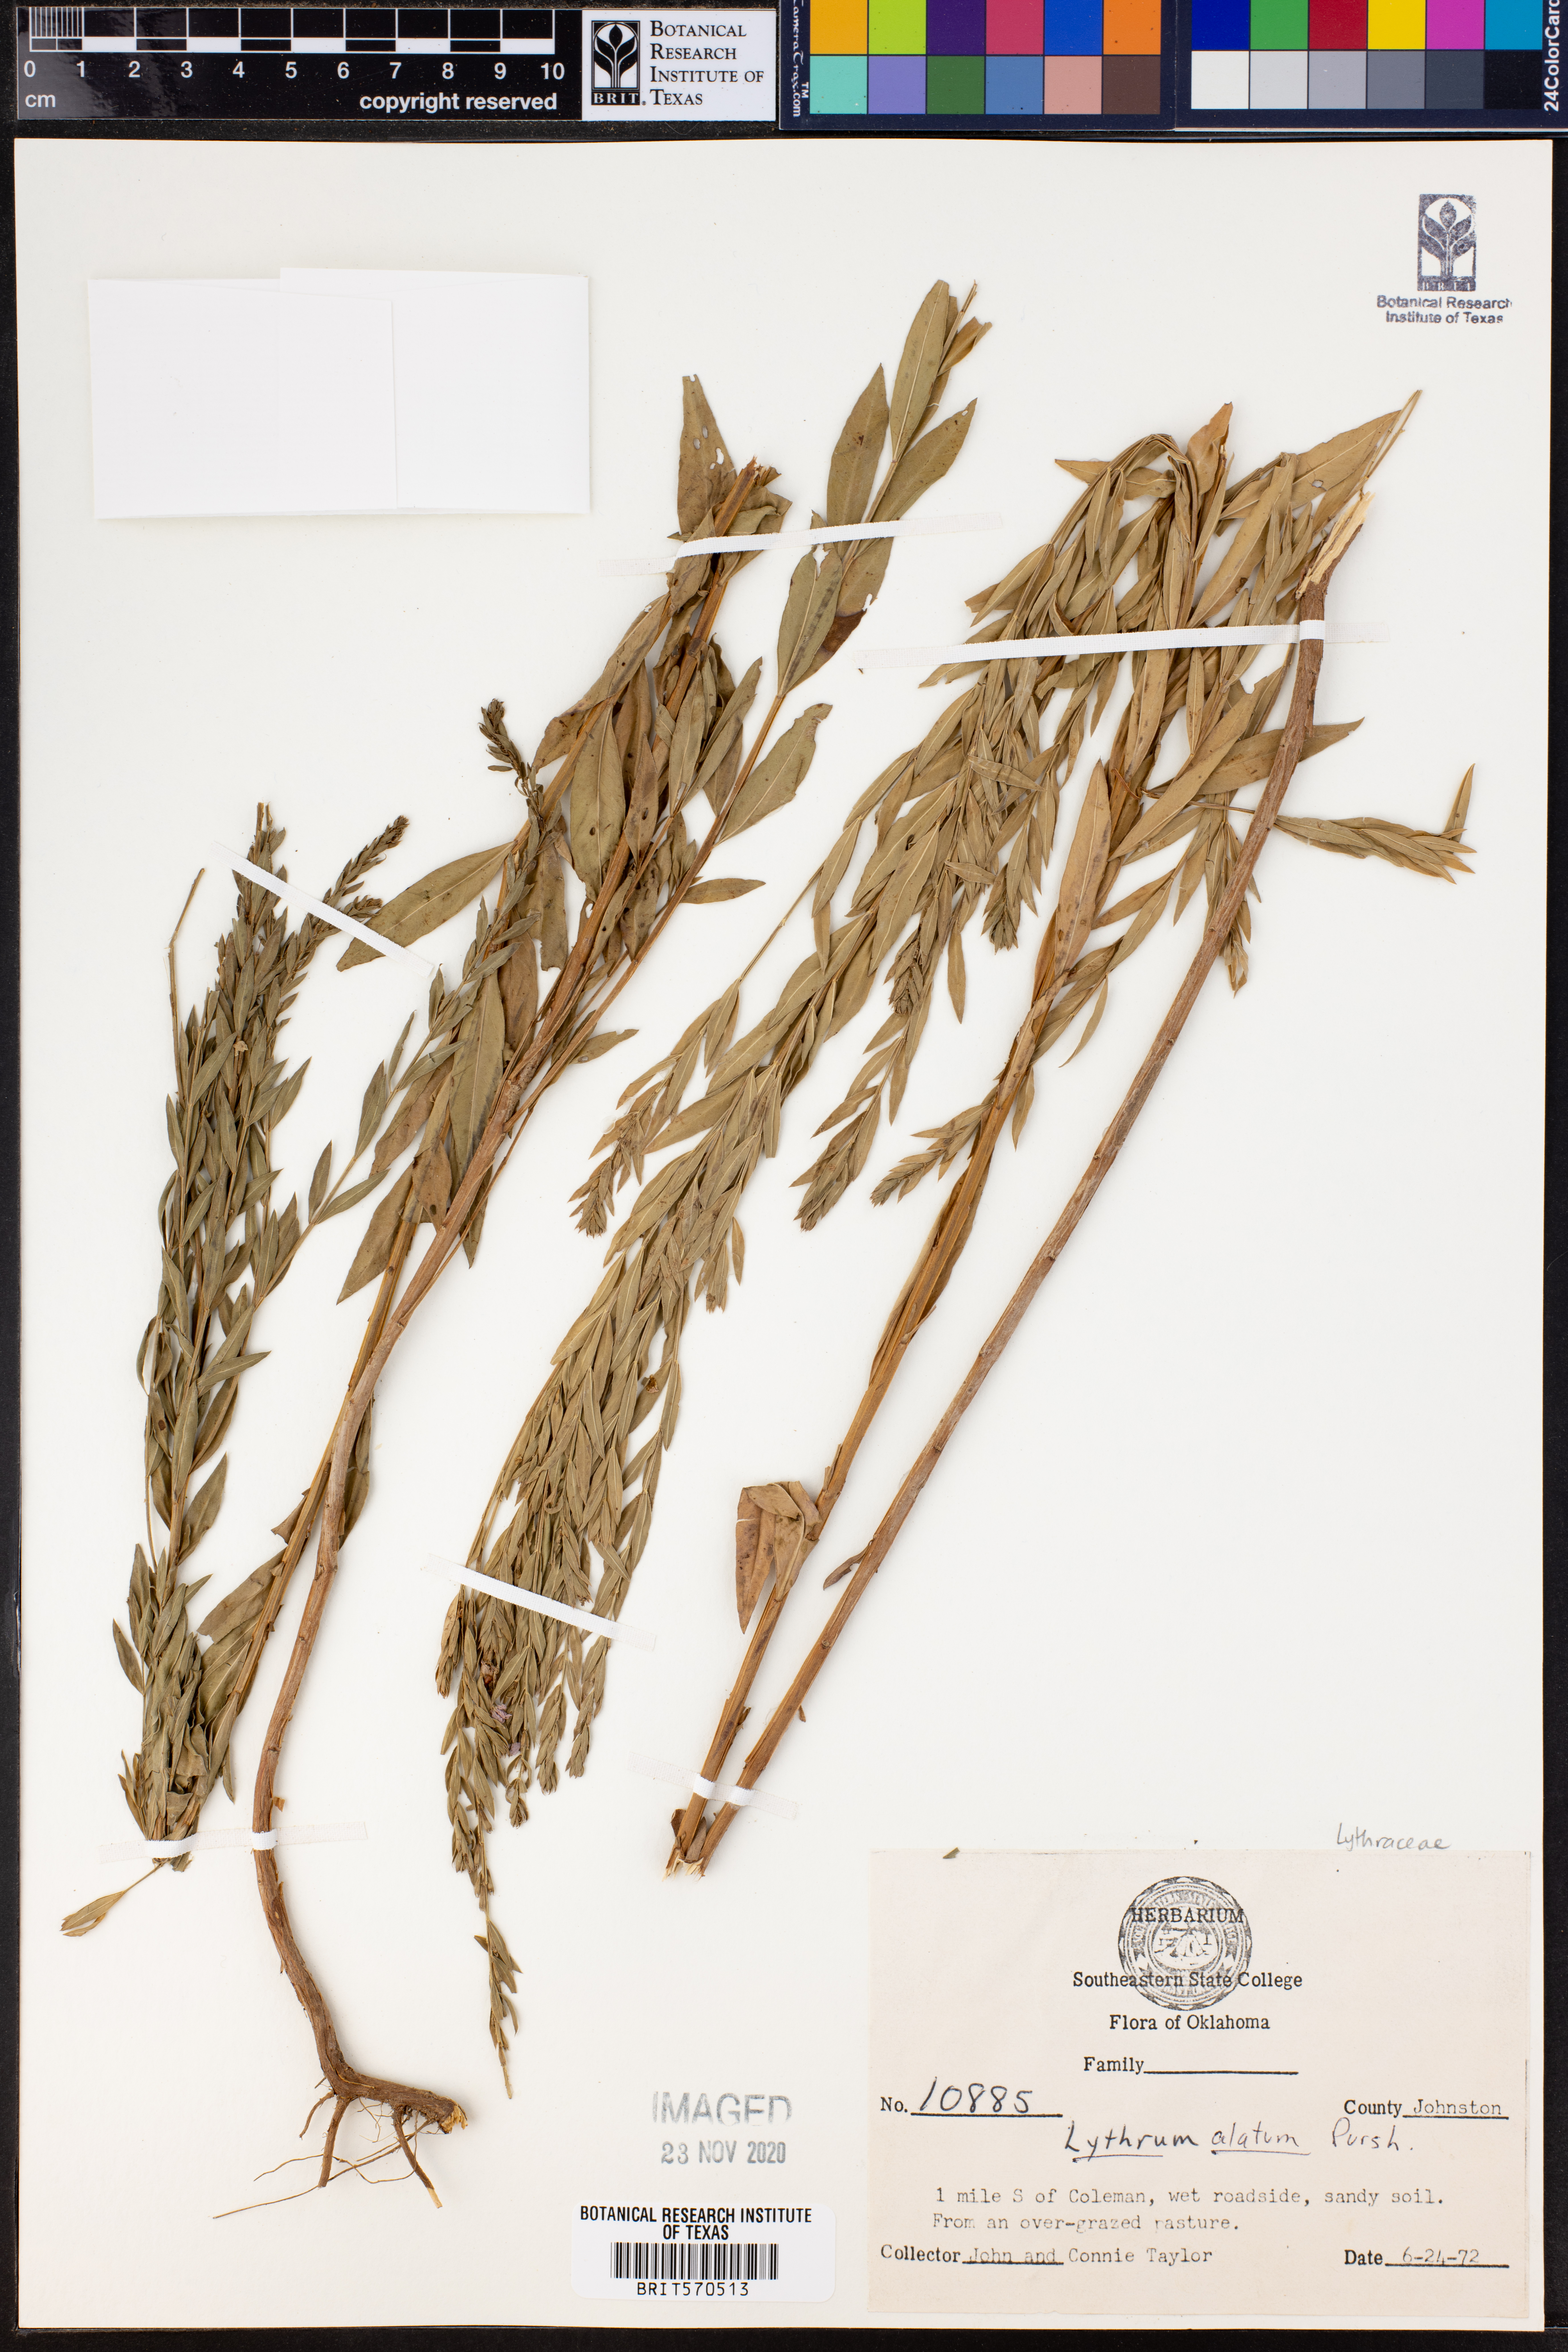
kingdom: Plantae
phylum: Tracheophyta
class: Magnoliopsida
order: Myrtales
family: Lythraceae
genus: Lythrum
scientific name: Lythrum alatum
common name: Winged loosestrife
